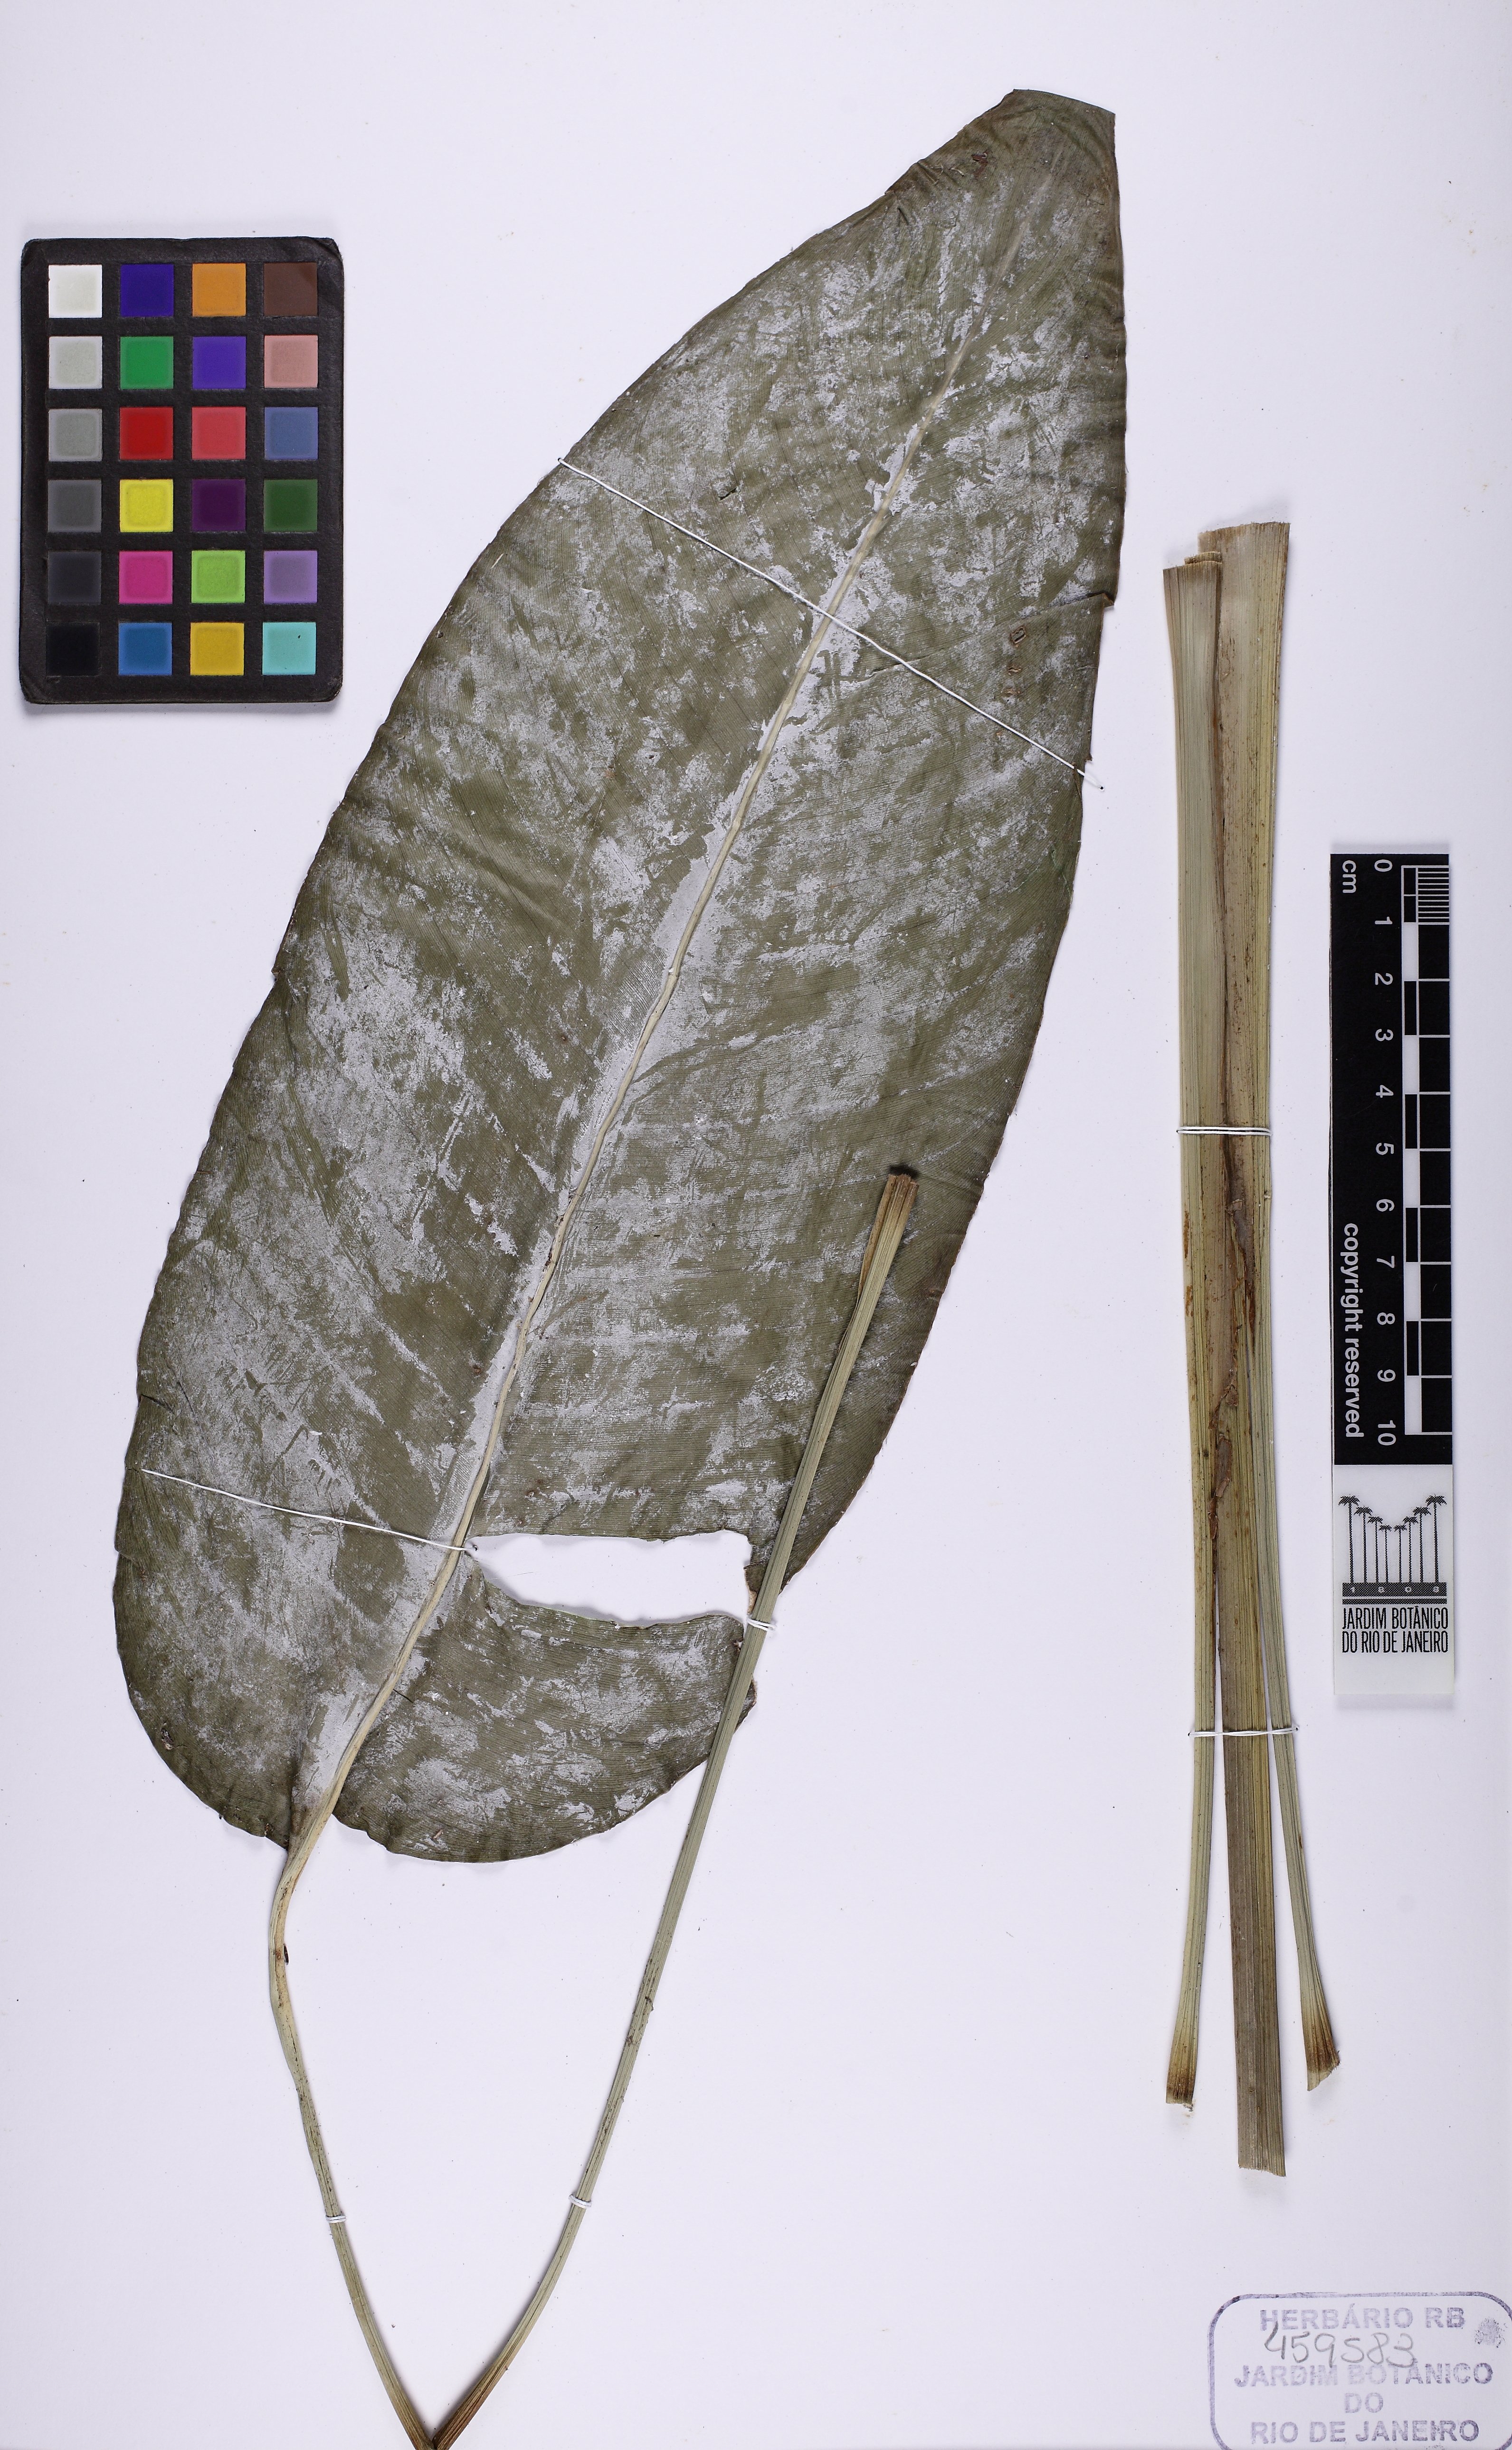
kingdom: Plantae
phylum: Tracheophyta
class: Liliopsida
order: Zingiberales
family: Heliconiaceae
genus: Heliconia
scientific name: Heliconia farinosa
